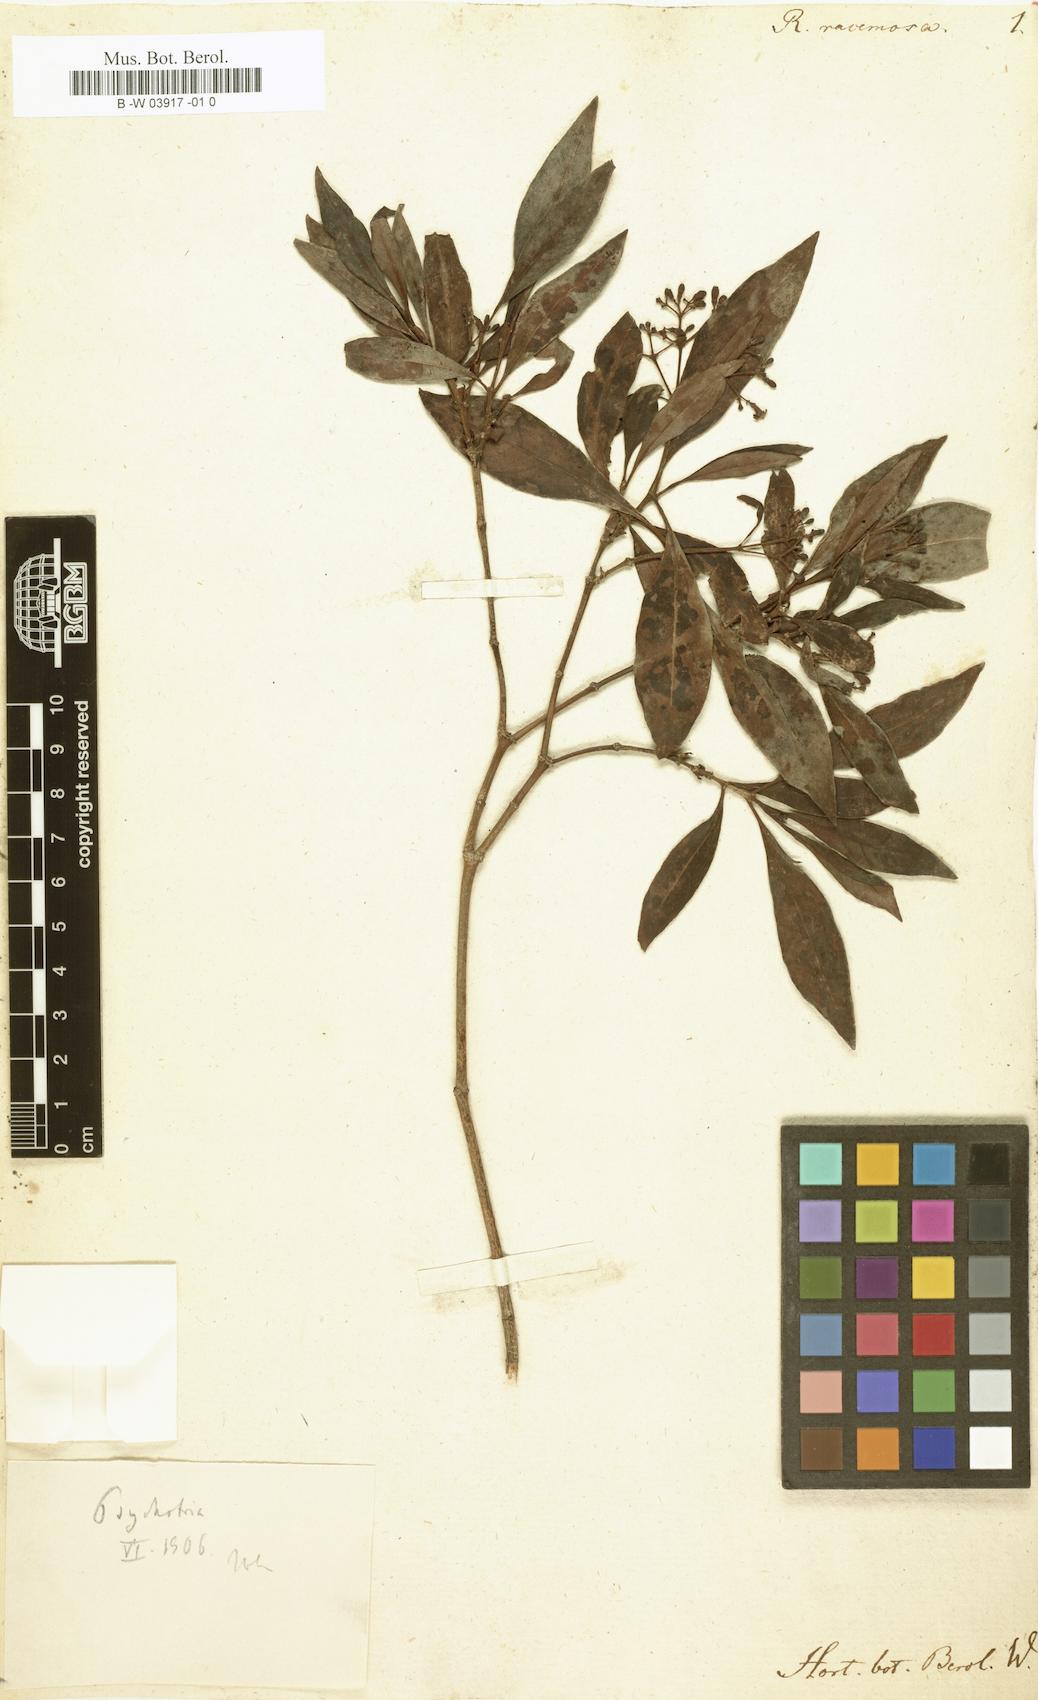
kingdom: Plantae
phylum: Tracheophyta
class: Magnoliopsida
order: Gentianales
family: Rubiaceae
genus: Rondeletia
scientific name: Rondeletia racemosa
